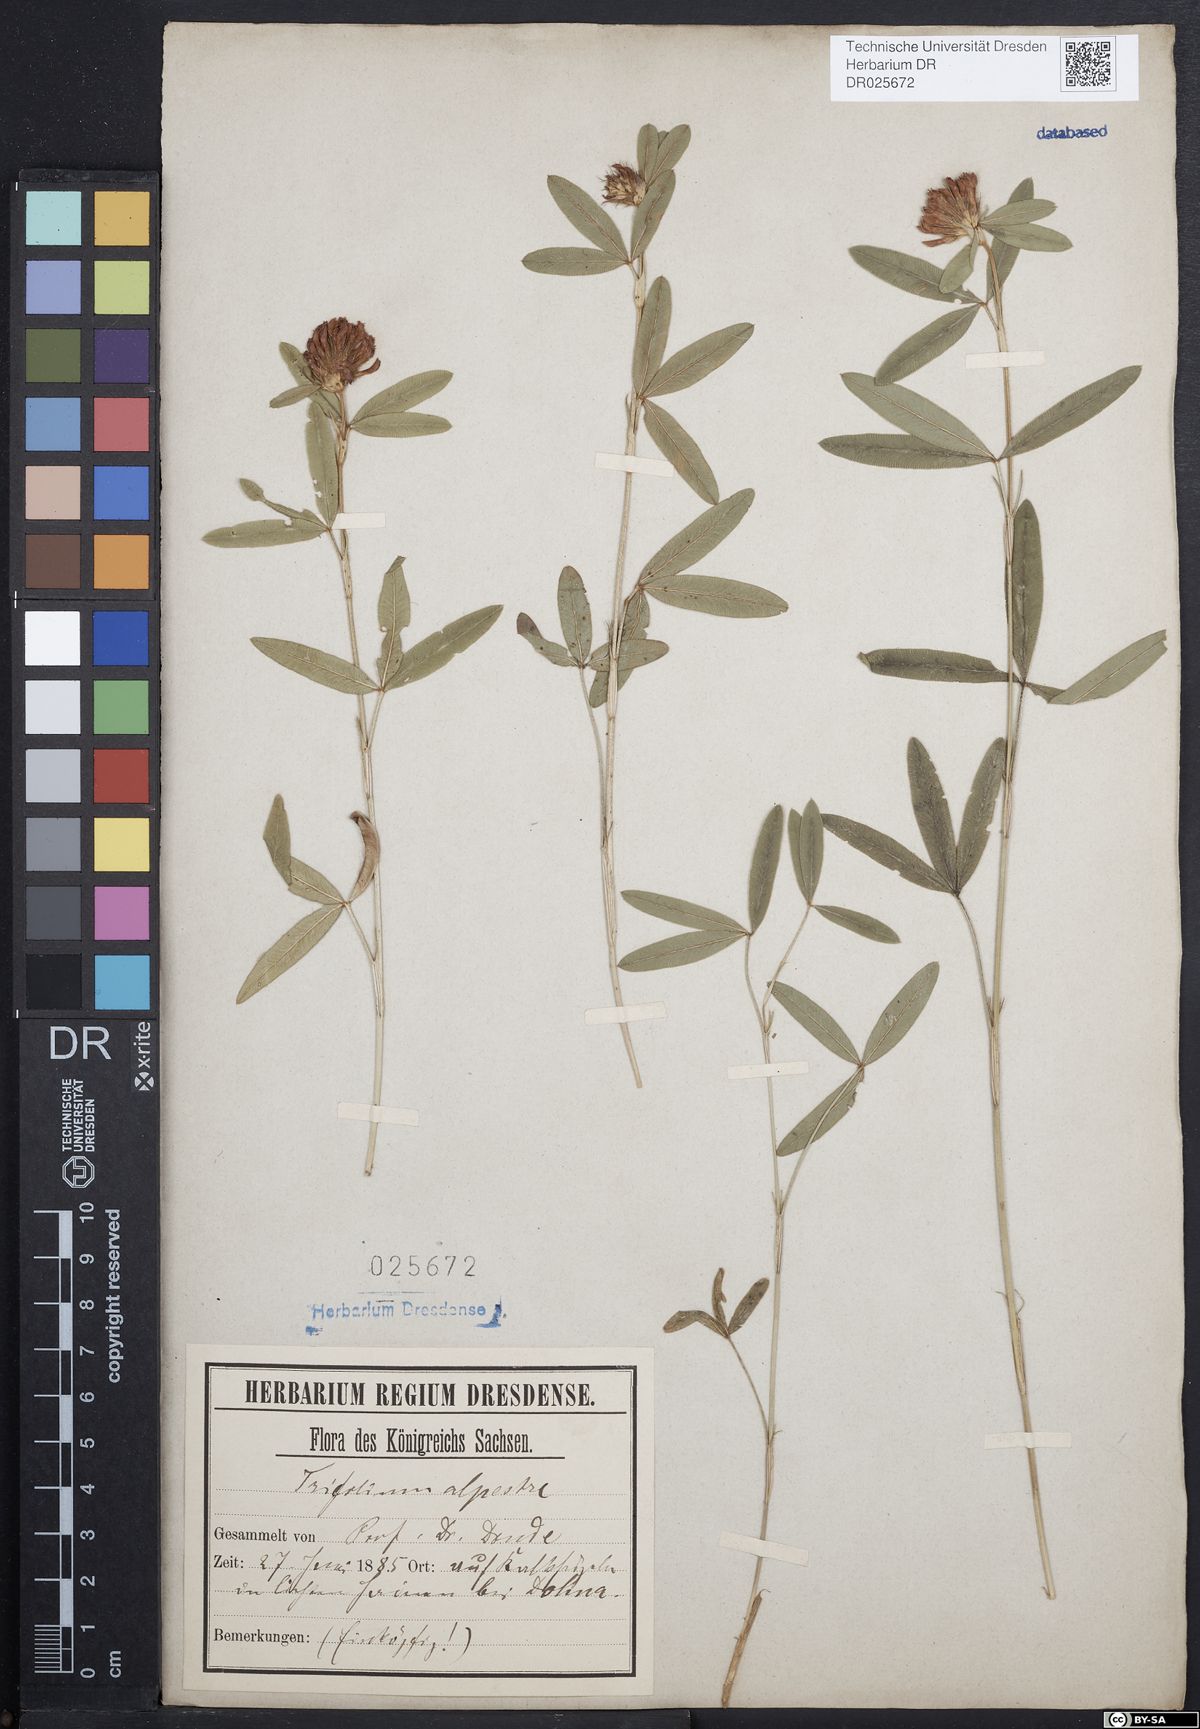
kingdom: Plantae
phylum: Tracheophyta
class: Magnoliopsida
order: Fabales
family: Fabaceae
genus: Trifolium
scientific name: Trifolium alpestre
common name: Owl-head clover
